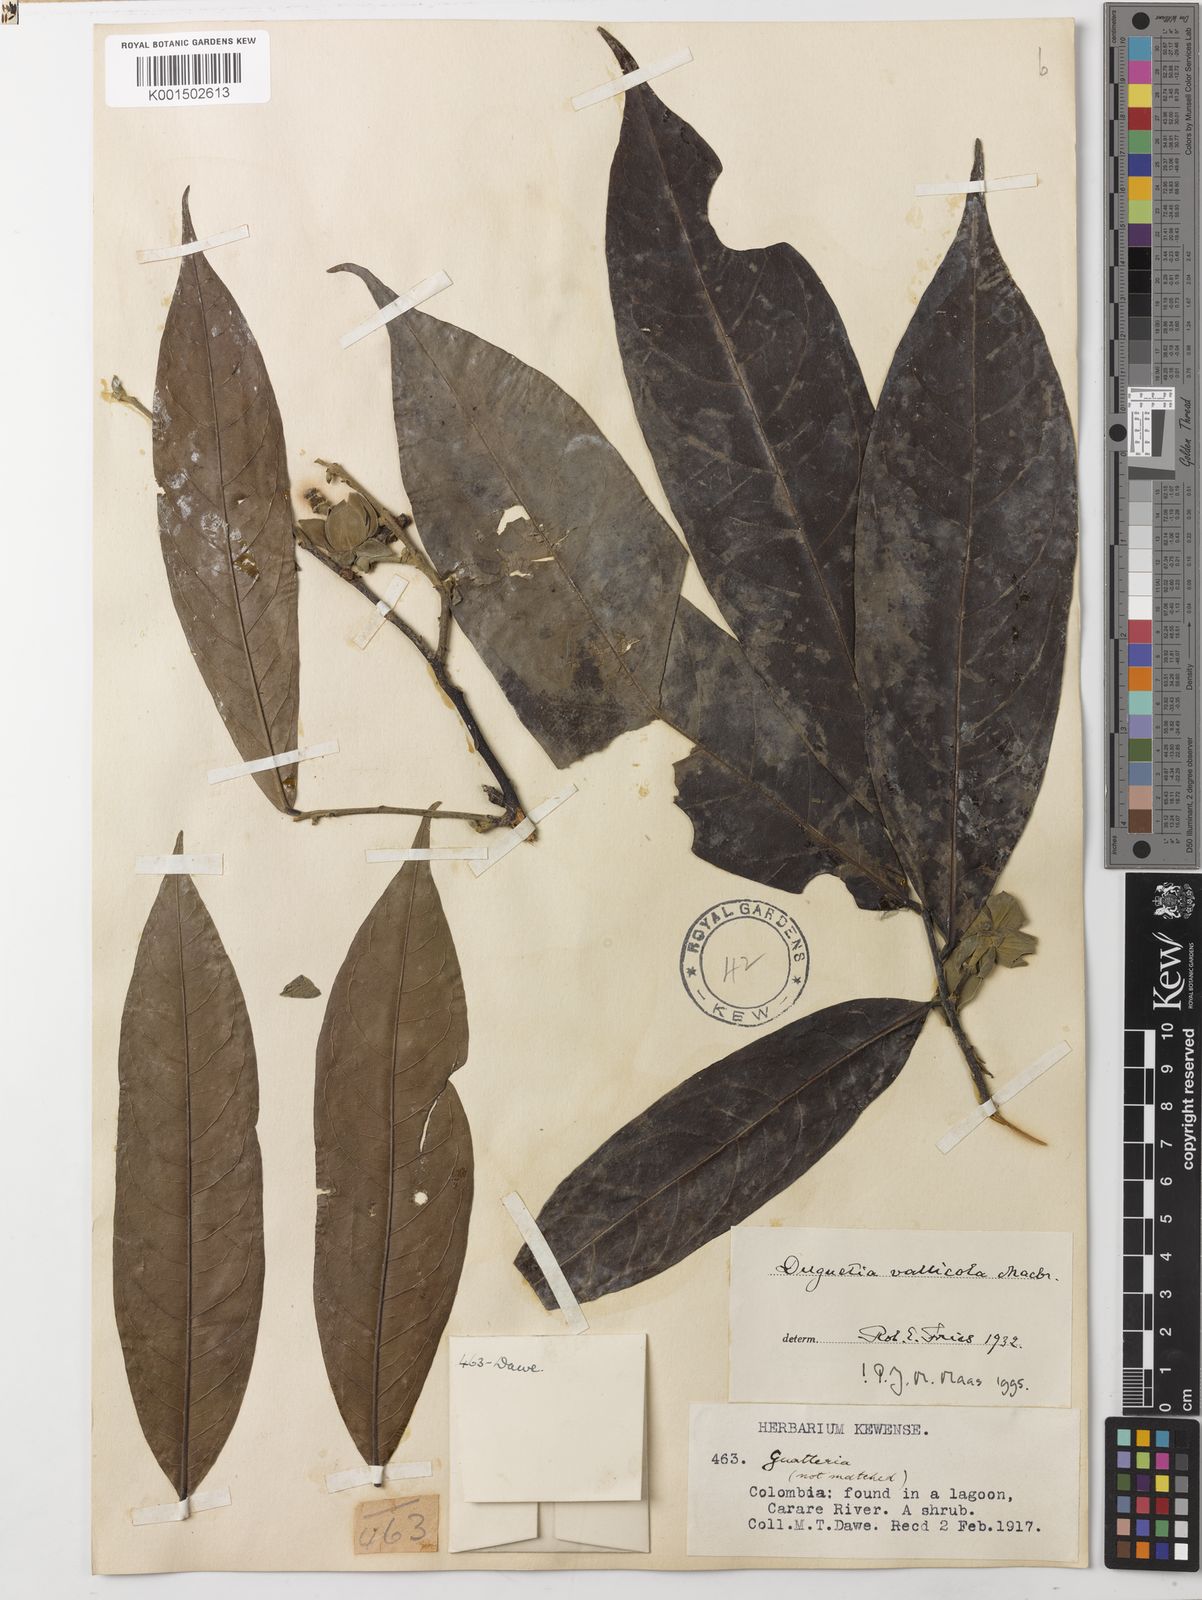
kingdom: Plantae
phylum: Tracheophyta
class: Magnoliopsida
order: Magnoliales
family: Annonaceae
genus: Duguetia
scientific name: Duguetia vallicola
